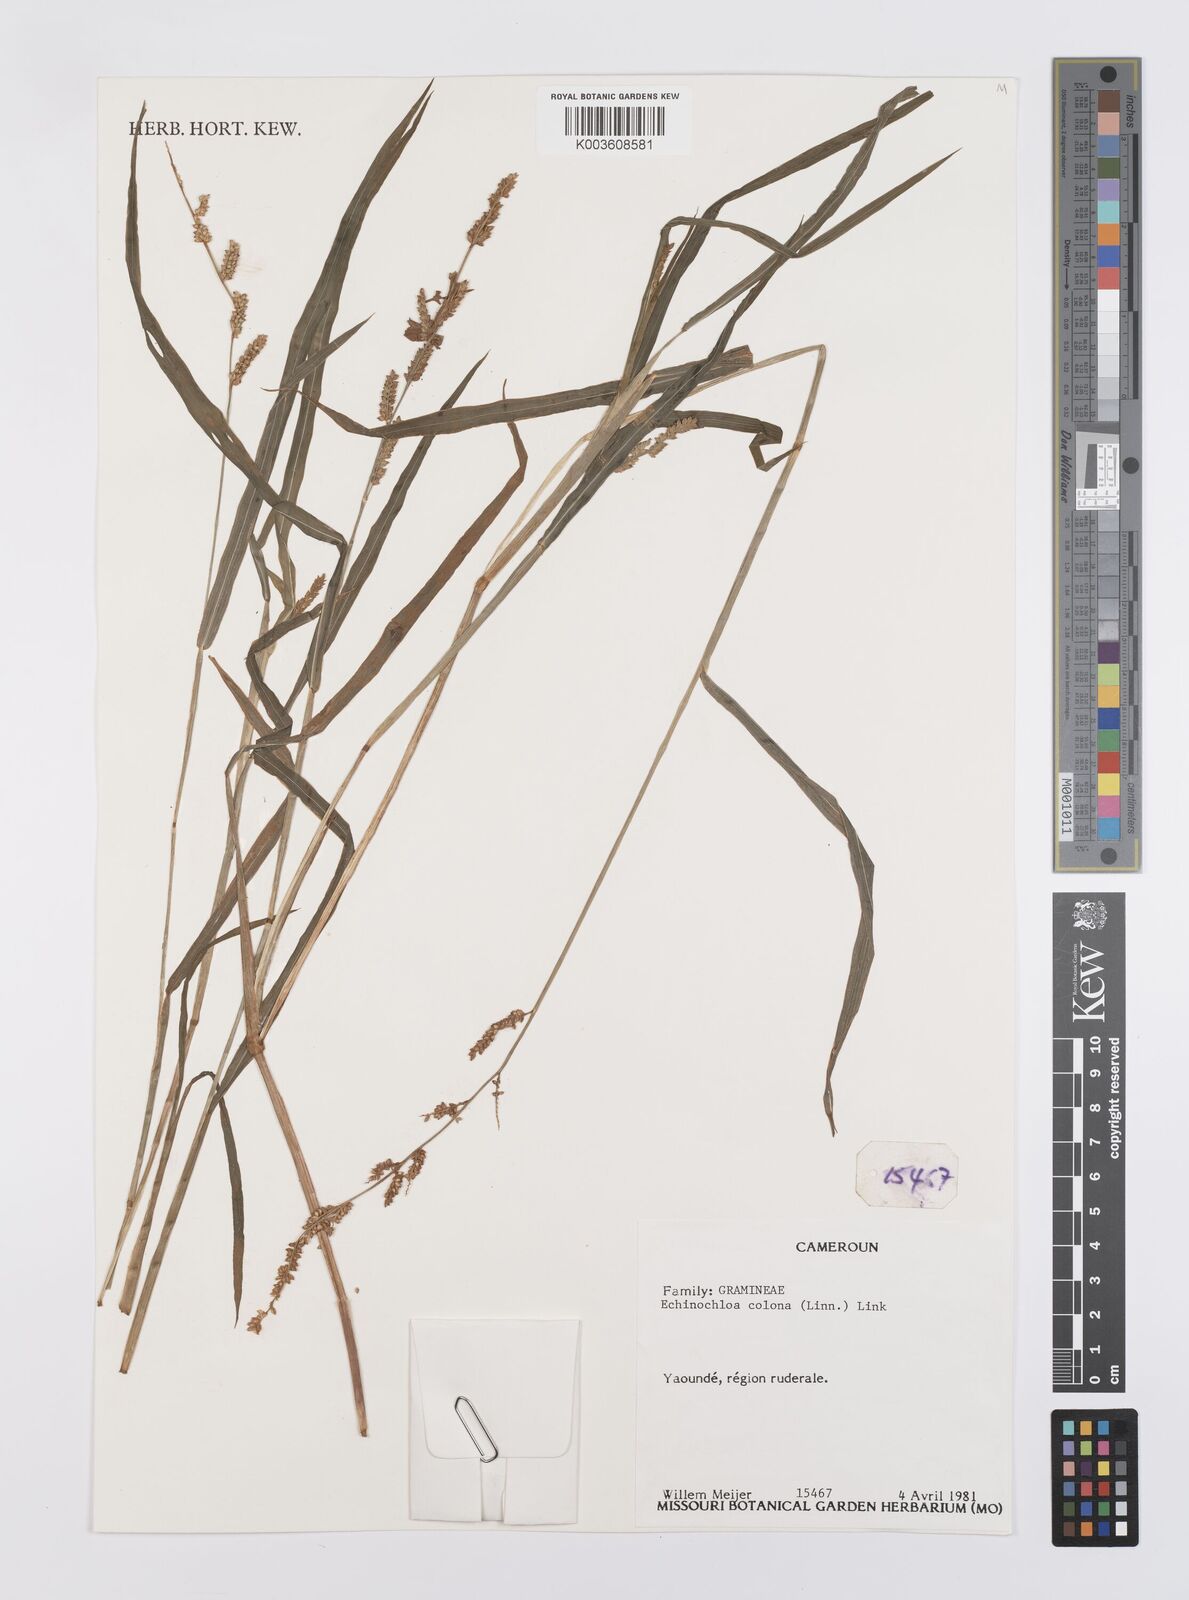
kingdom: Plantae
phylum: Tracheophyta
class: Liliopsida
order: Poales
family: Poaceae
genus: Echinochloa
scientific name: Echinochloa colonum
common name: Jungle rice
